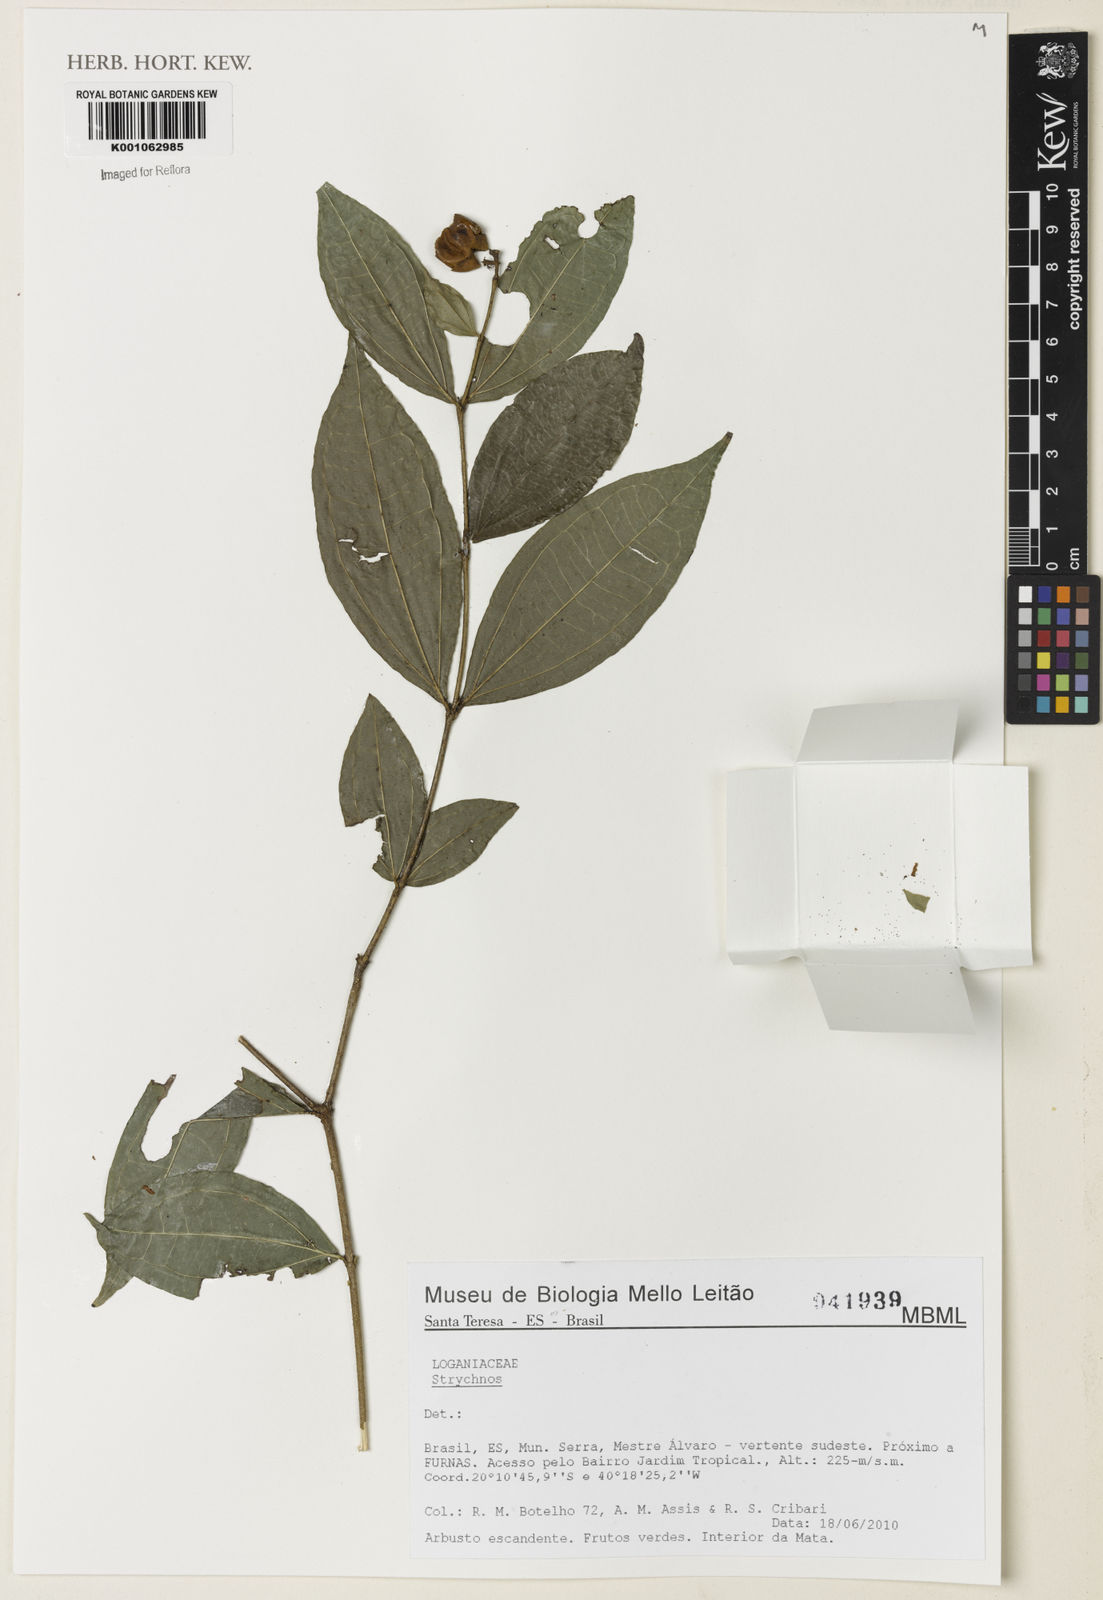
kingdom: Plantae
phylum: Tracheophyta
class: Magnoliopsida
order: Gentianales
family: Loganiaceae
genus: Strychnos
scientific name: Strychnos
